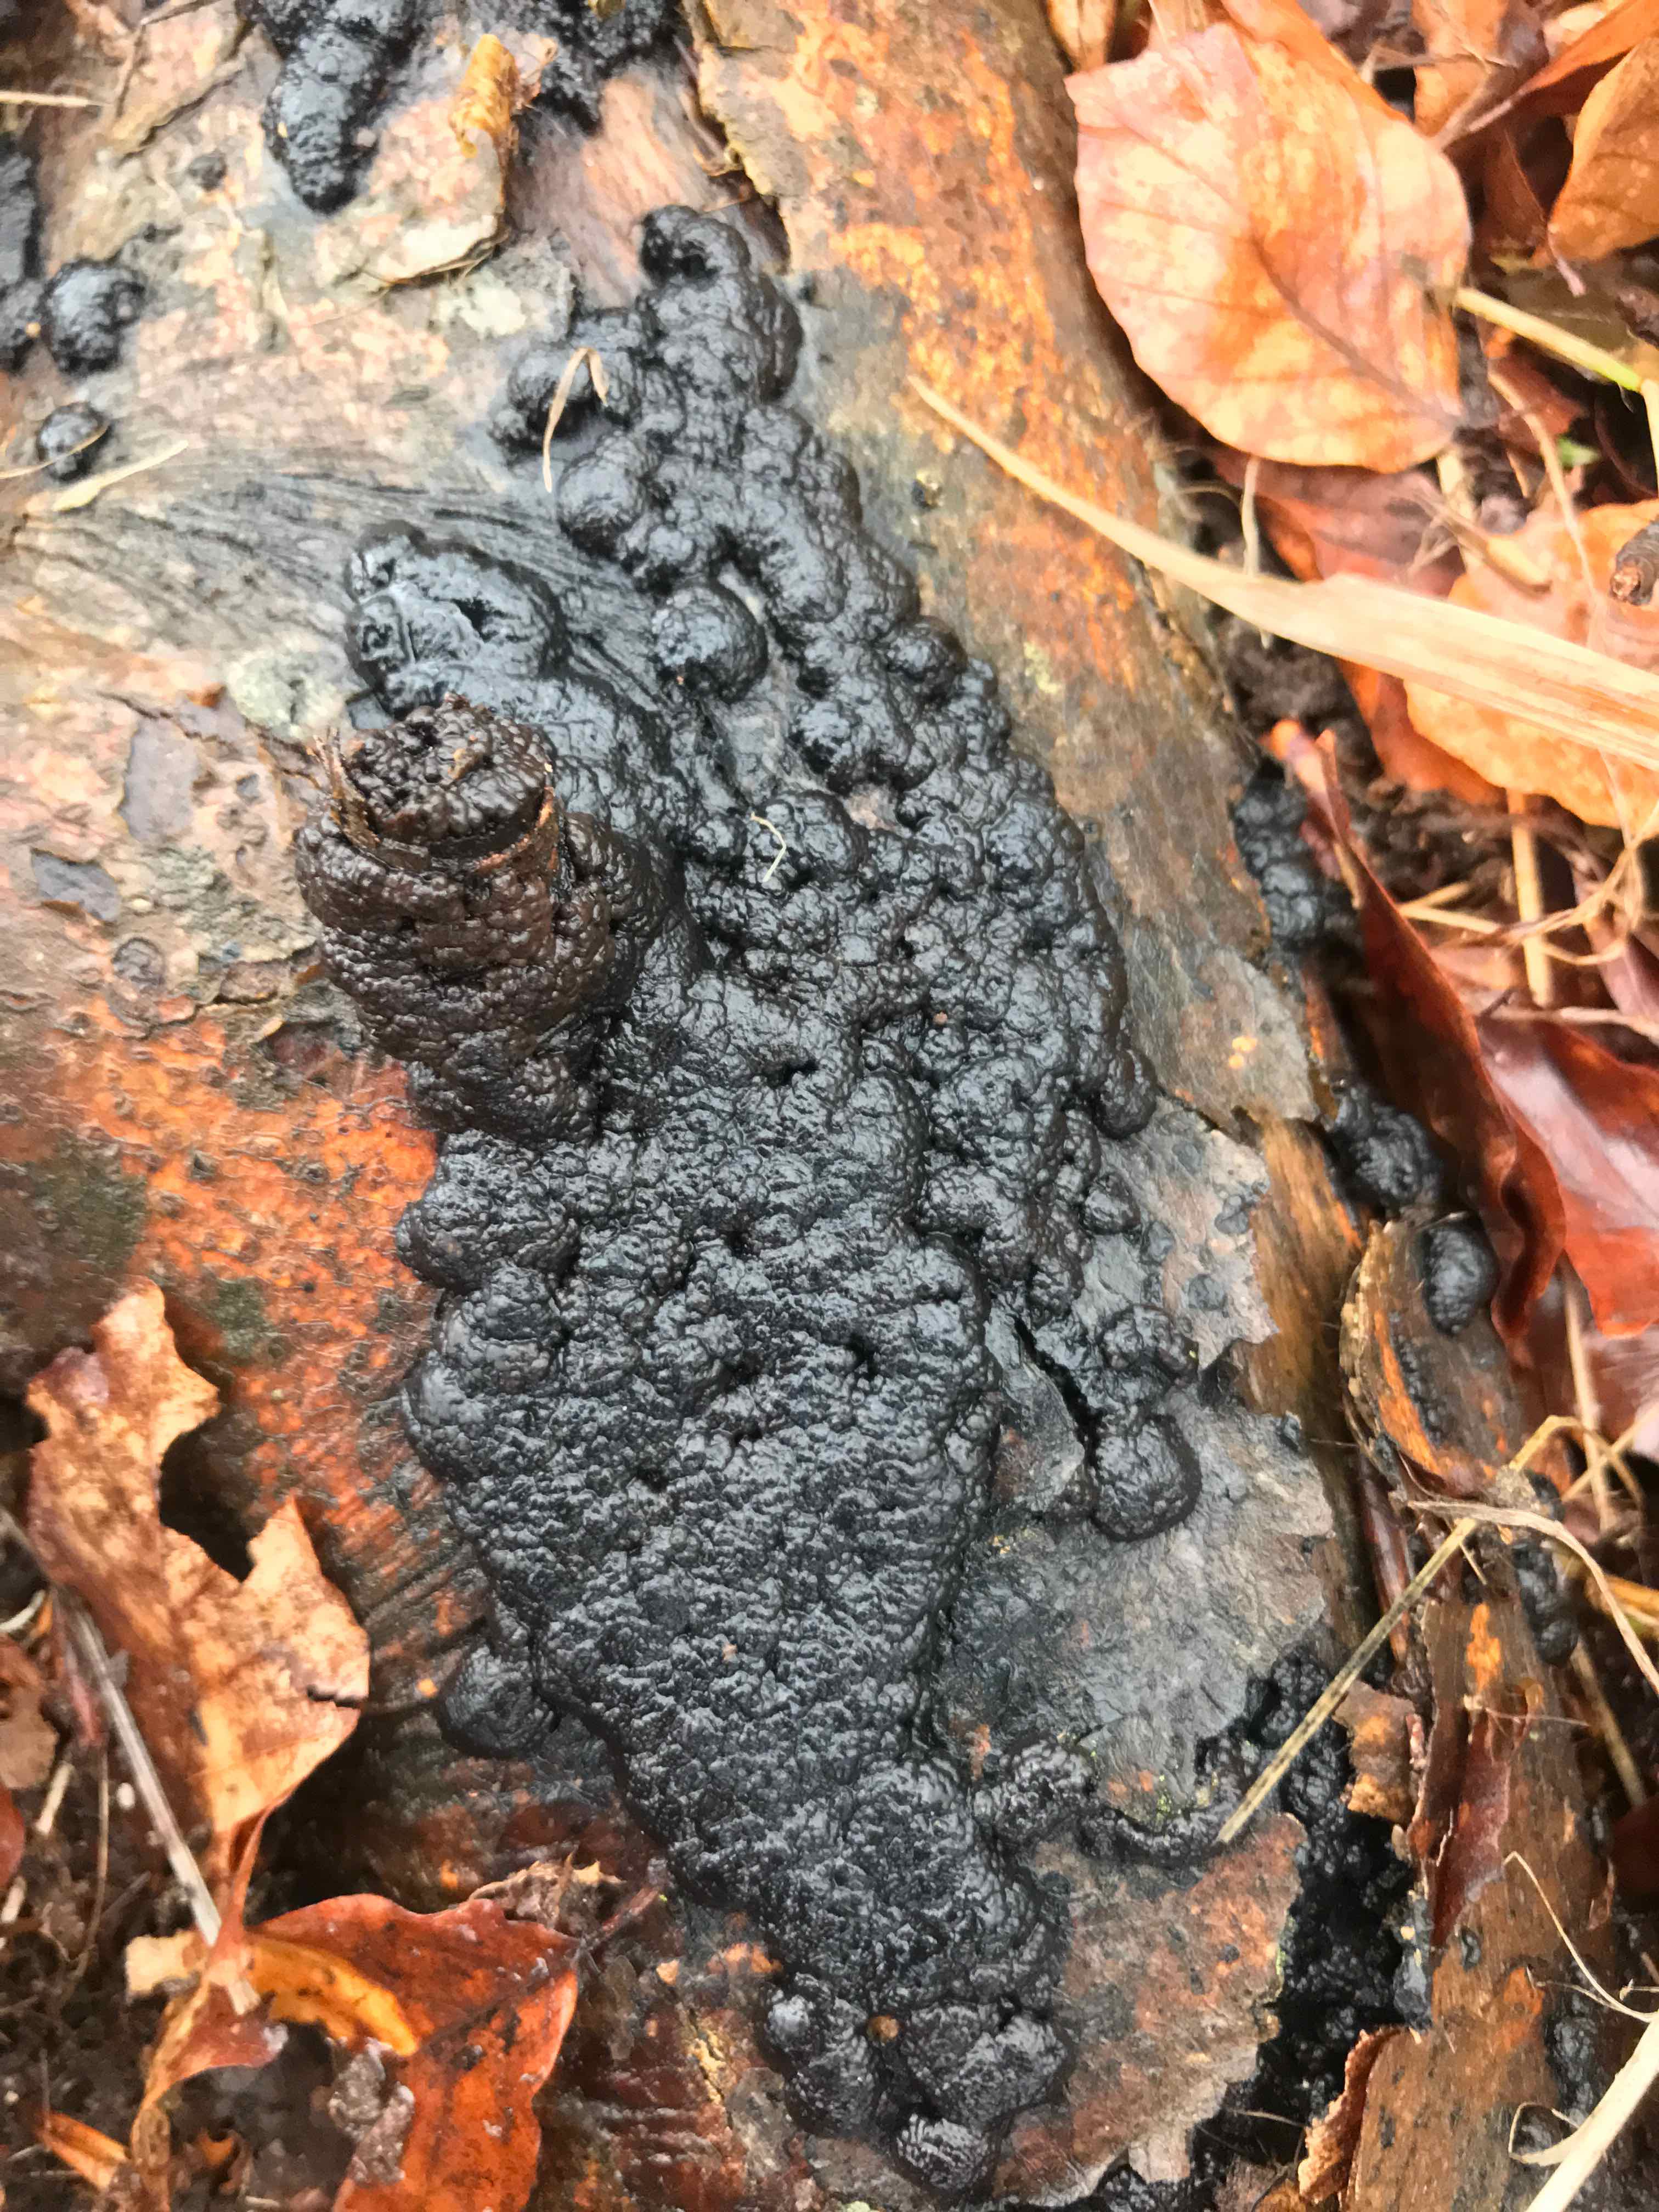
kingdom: Fungi
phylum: Ascomycota
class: Sordariomycetes
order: Xylariales
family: Hypoxylaceae
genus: Jackrogersella
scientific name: Jackrogersella cohaerens
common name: sammenflydende kulbær
